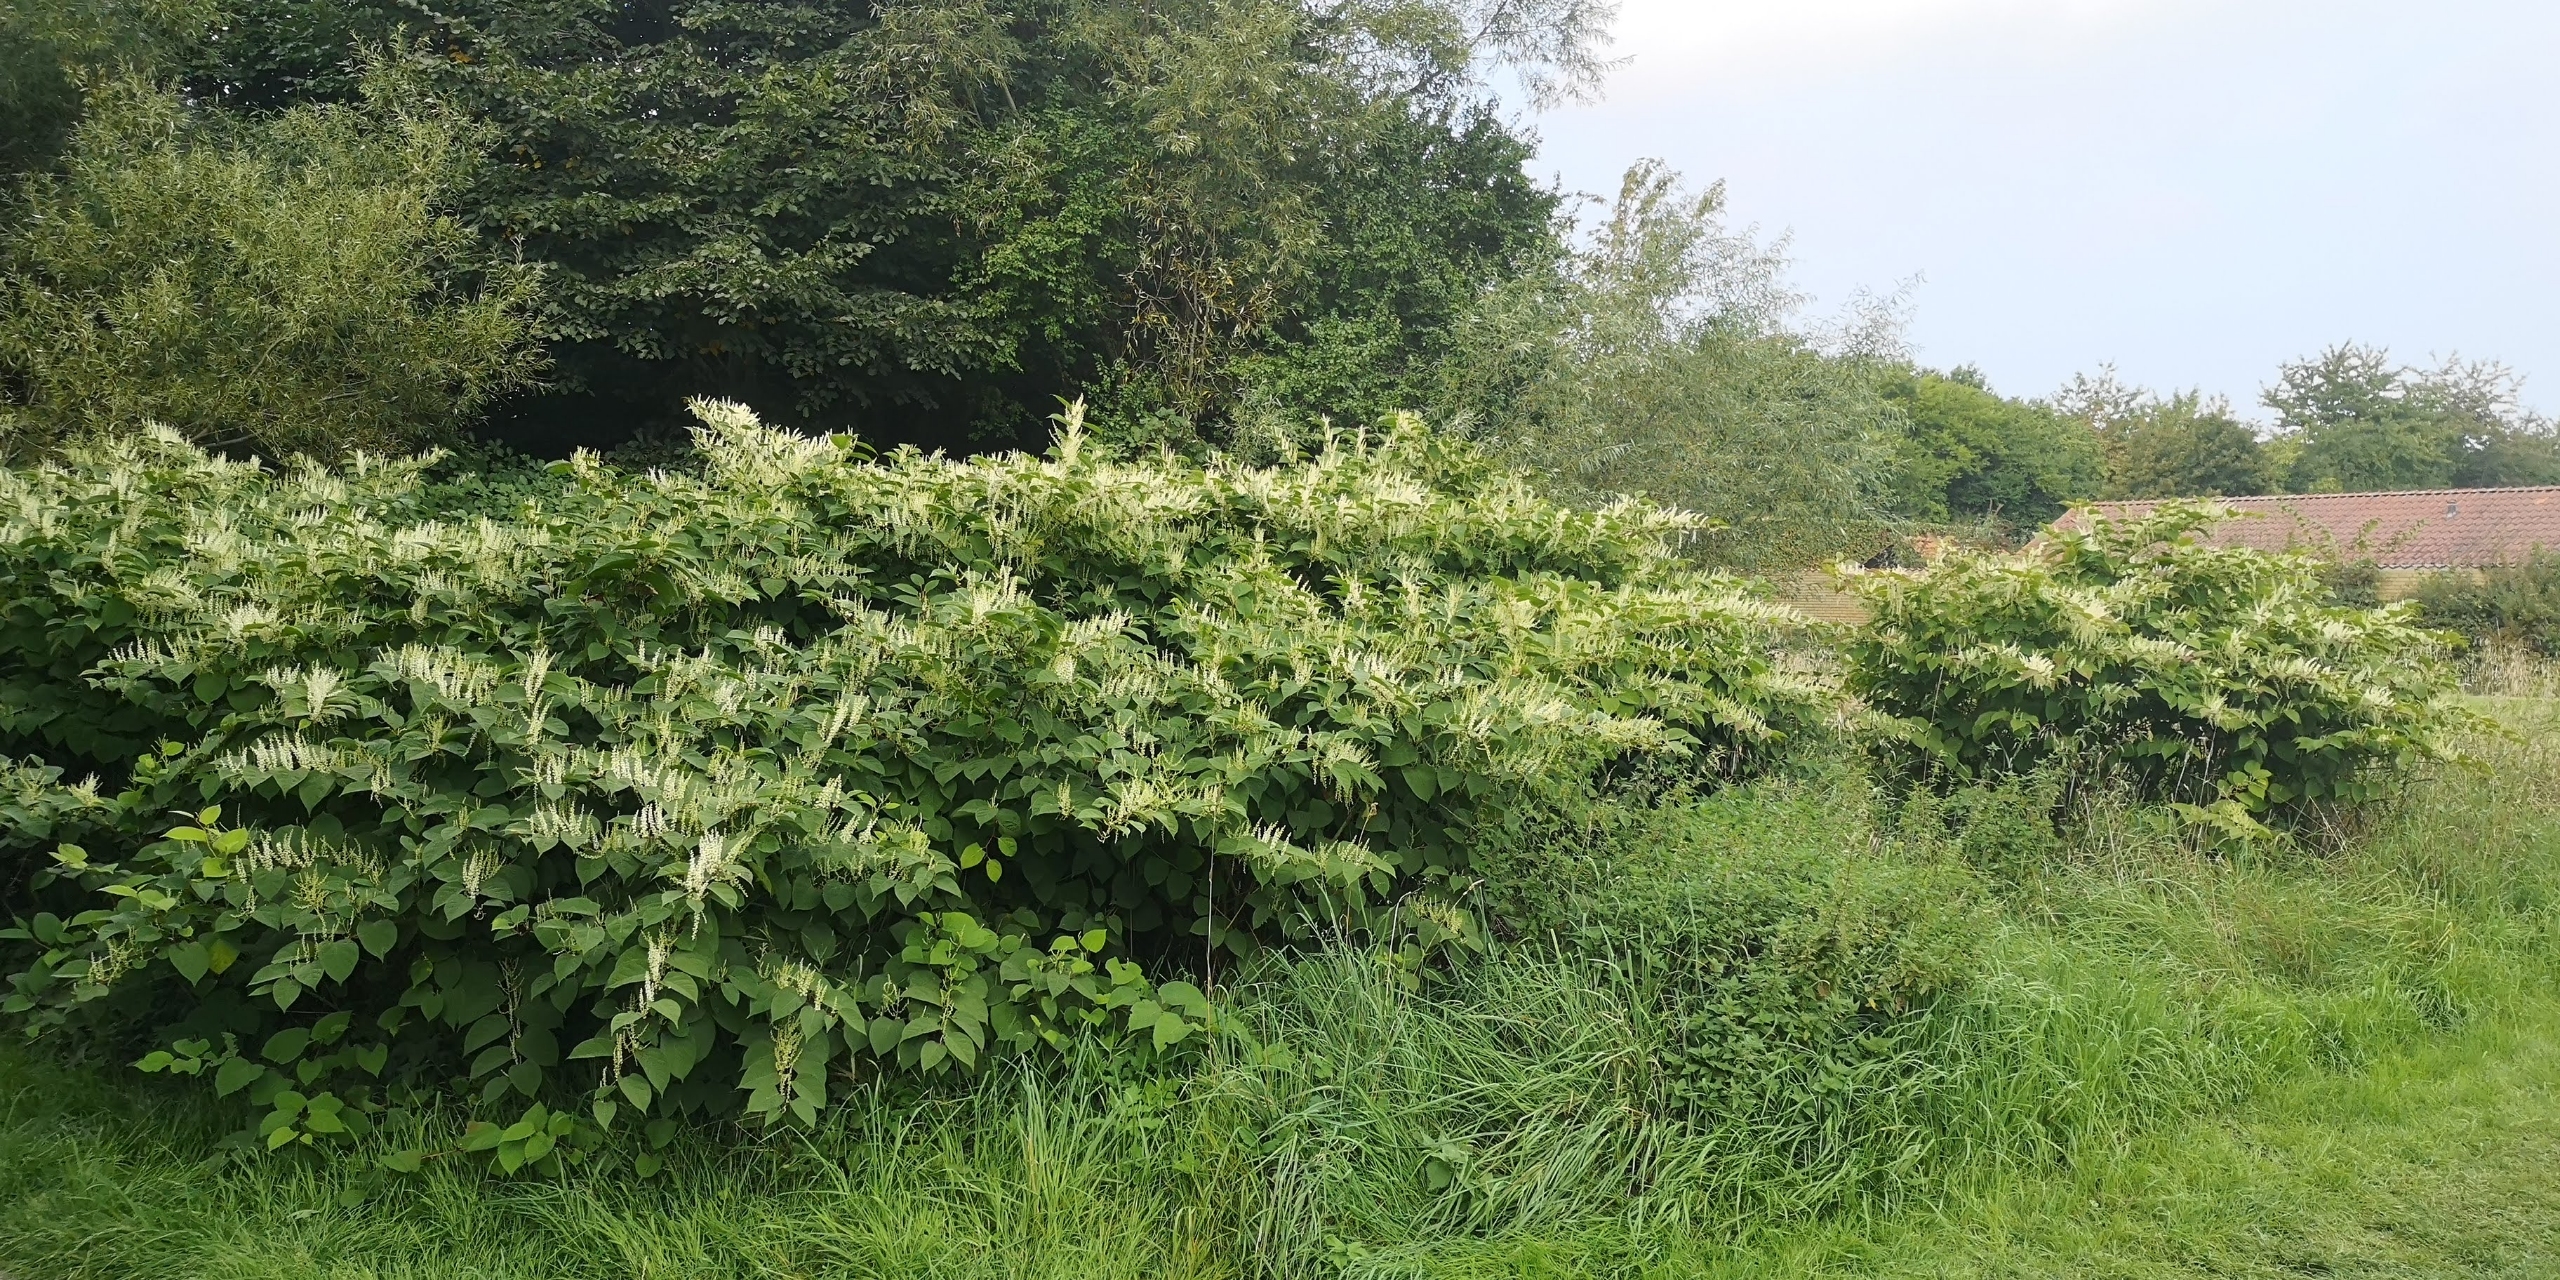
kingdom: Plantae
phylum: Tracheophyta
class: Magnoliopsida
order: Caryophyllales
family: Polygonaceae
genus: Reynoutria
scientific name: Reynoutria japonica
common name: Japan-pileurt
